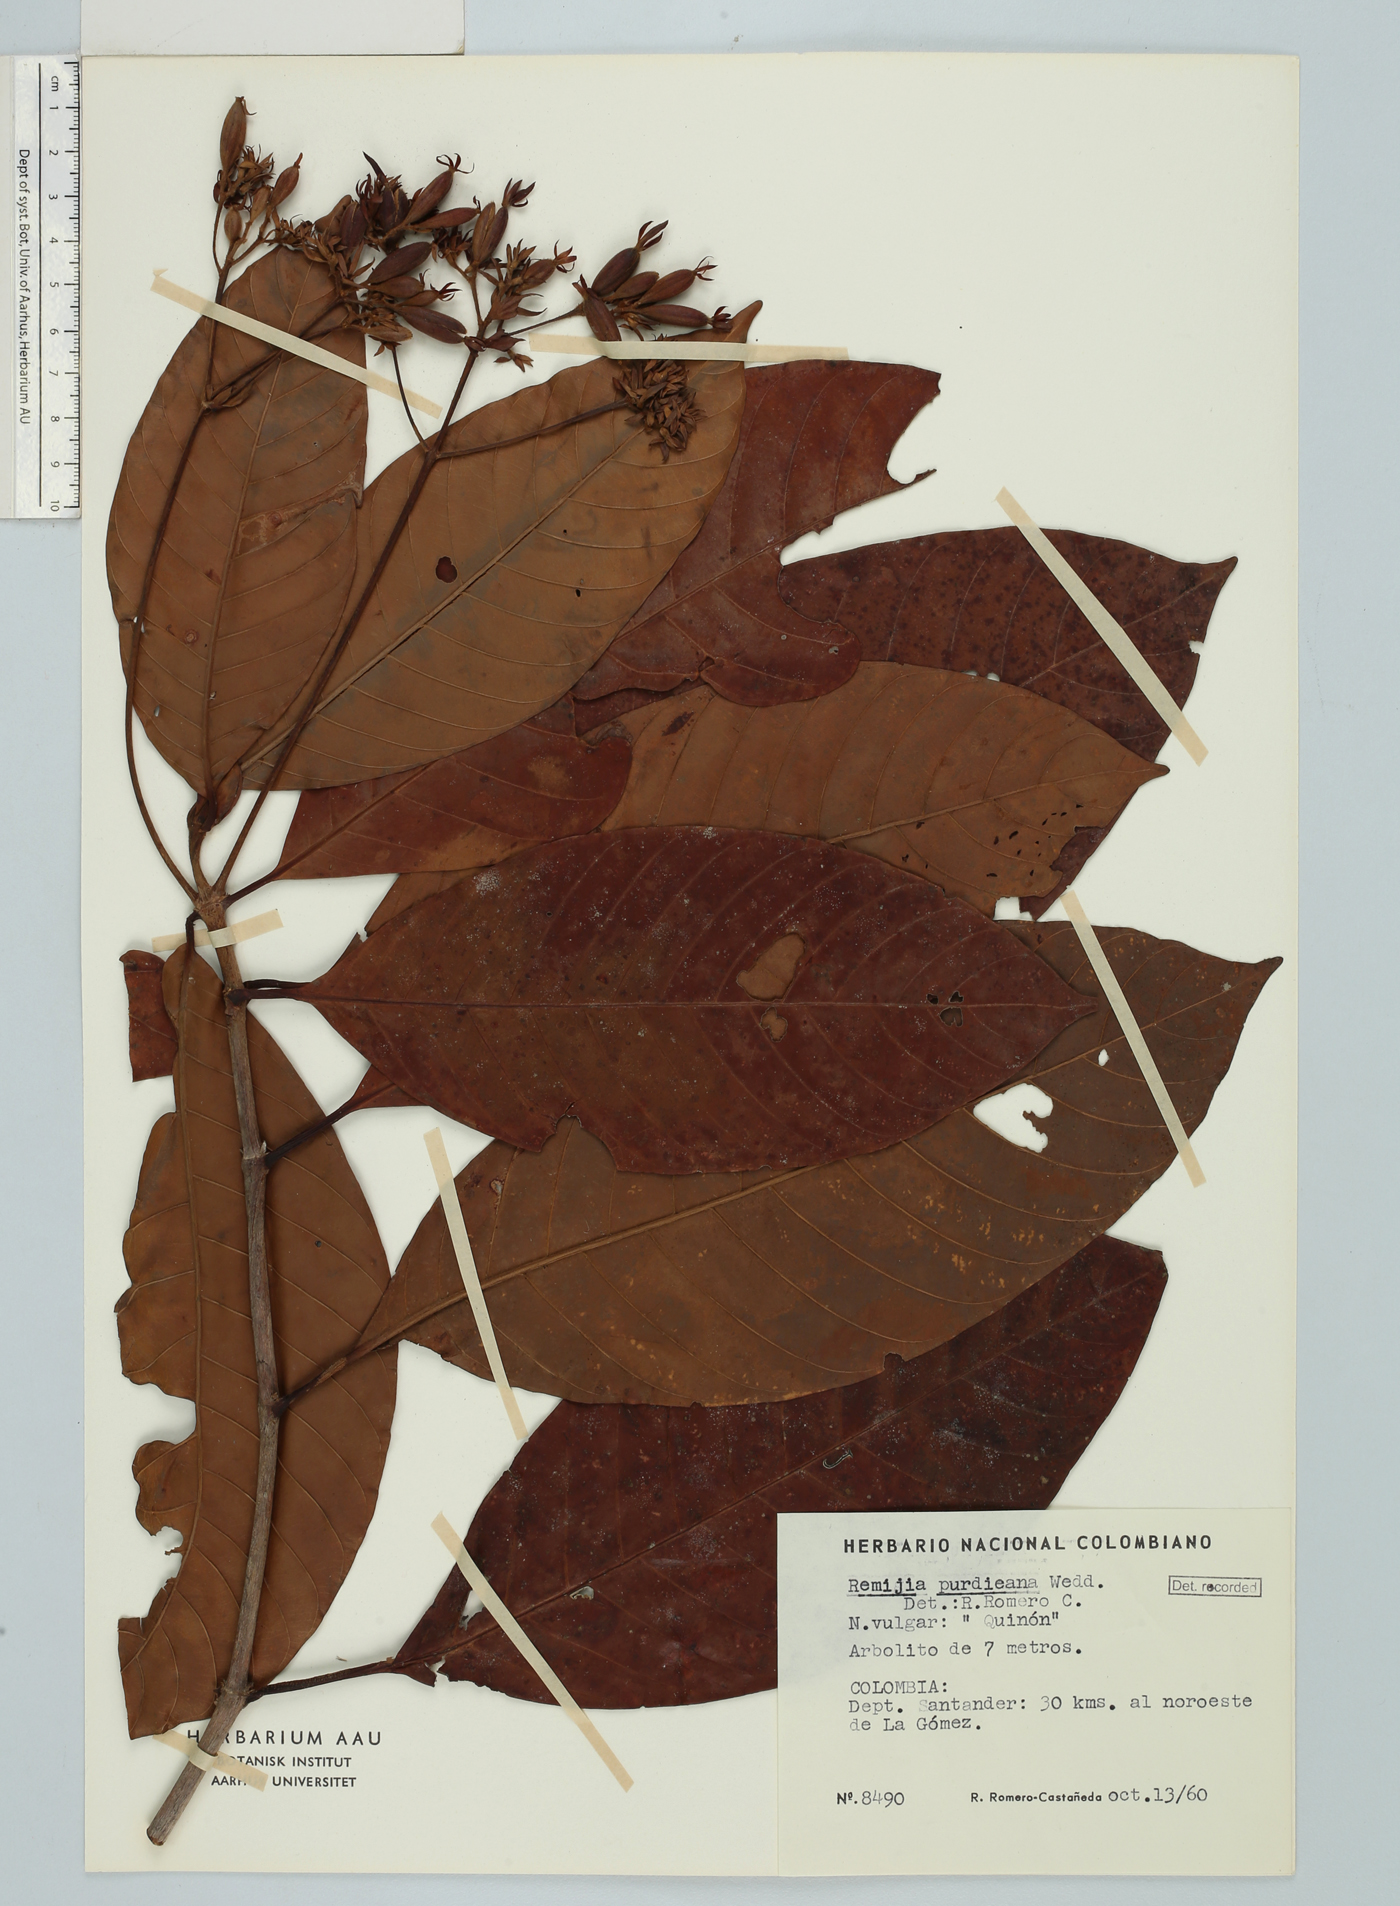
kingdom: Plantae
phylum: Tracheophyta
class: Magnoliopsida
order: Gentianales
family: Rubiaceae
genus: Ciliosemina
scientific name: Ciliosemina purdieana
